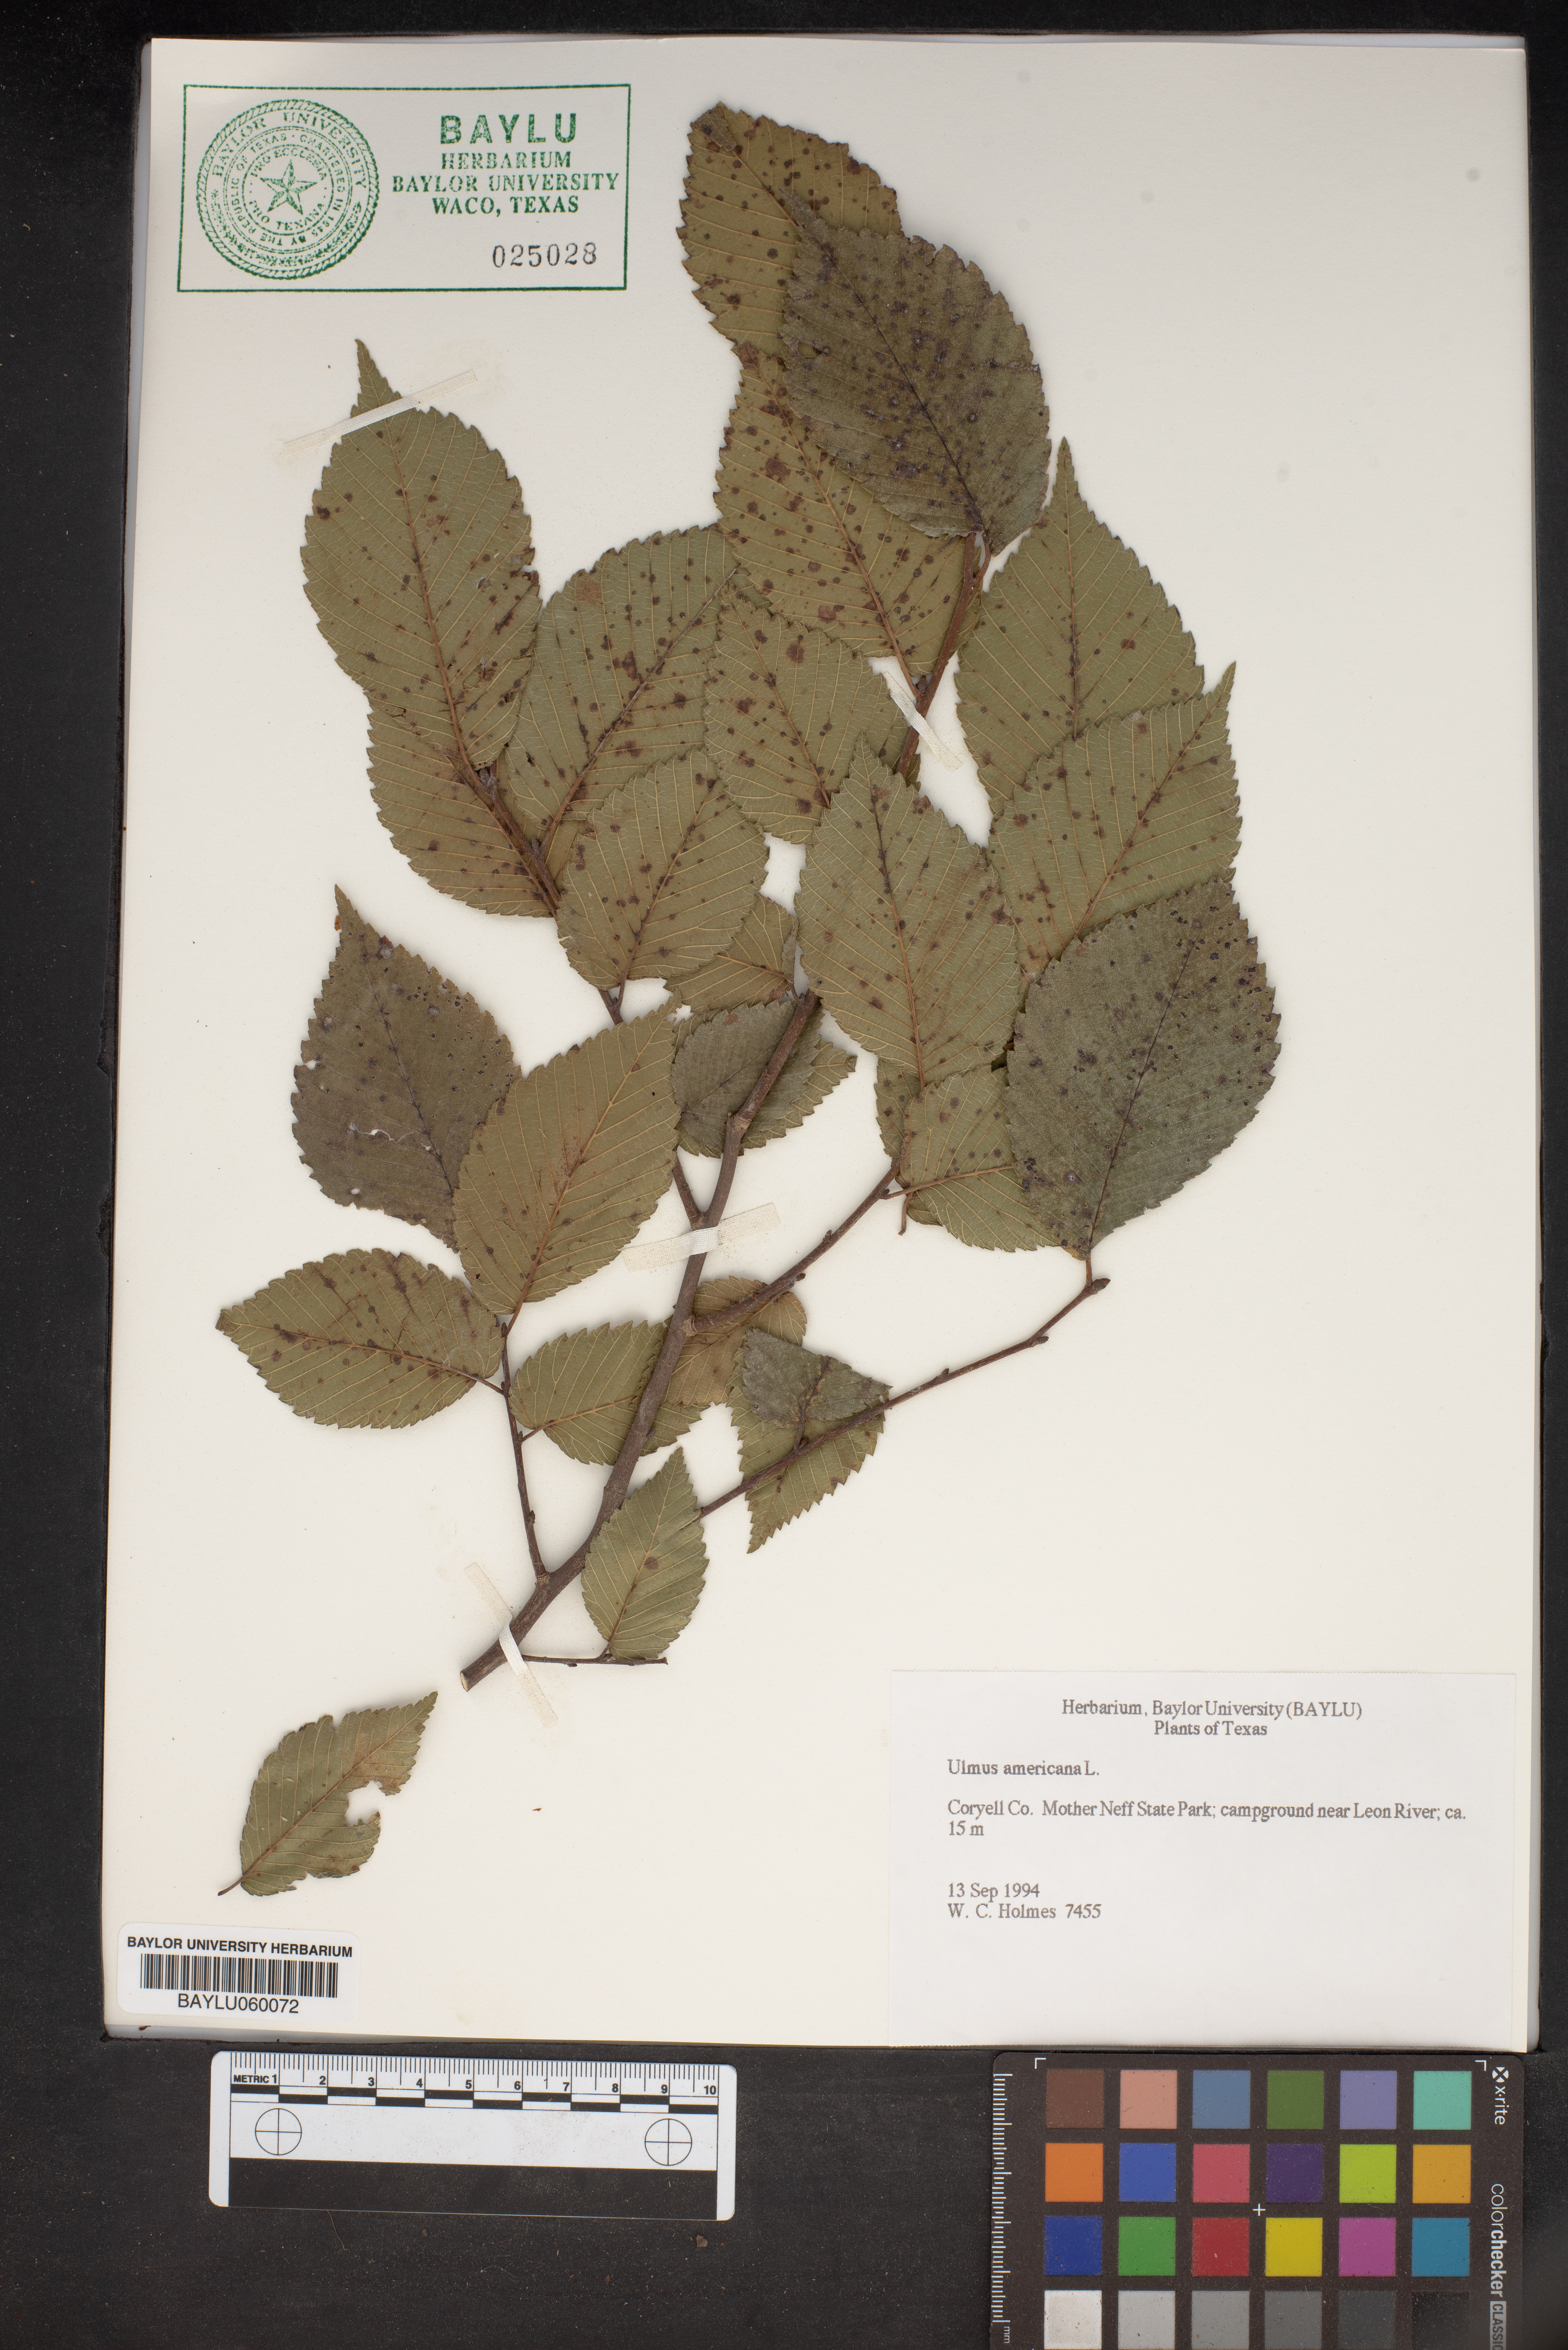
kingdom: Plantae
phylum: Tracheophyta
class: Magnoliopsida
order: Rosales
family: Ulmaceae
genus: Ulmus
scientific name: Ulmus americana
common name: American elm
